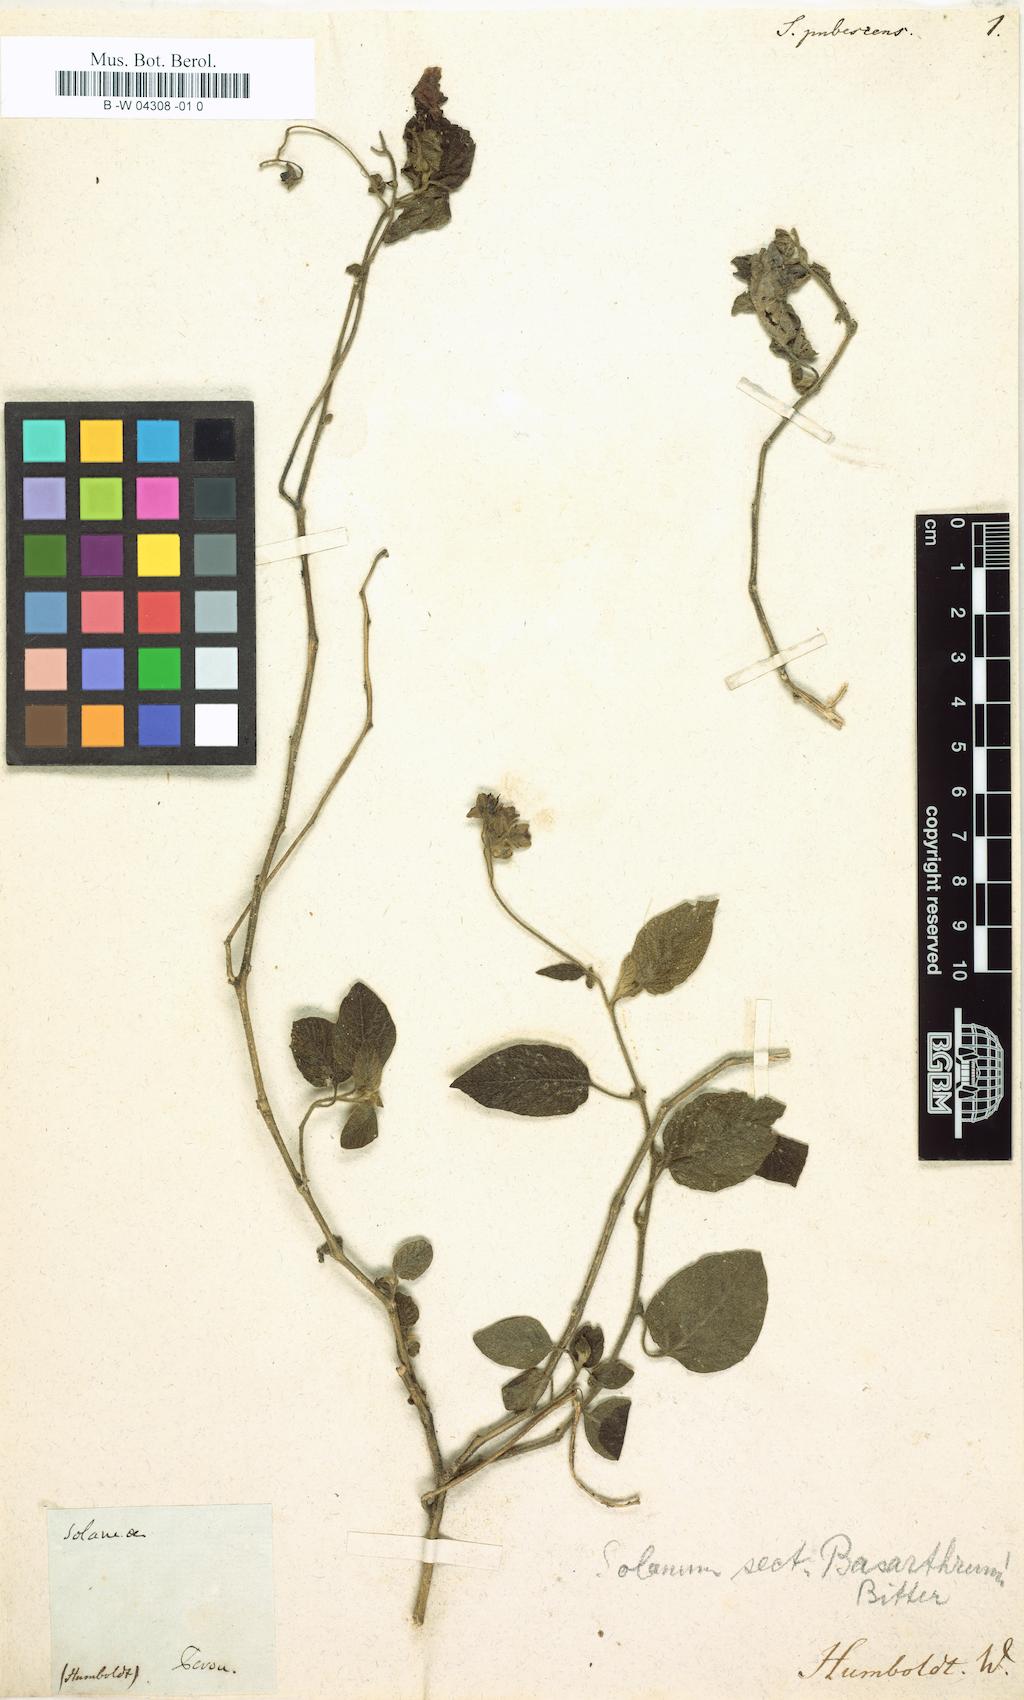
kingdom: Plantae
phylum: Tracheophyta
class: Magnoliopsida
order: Solanales
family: Solanaceae
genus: Saracha
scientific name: Saracha pubescens
